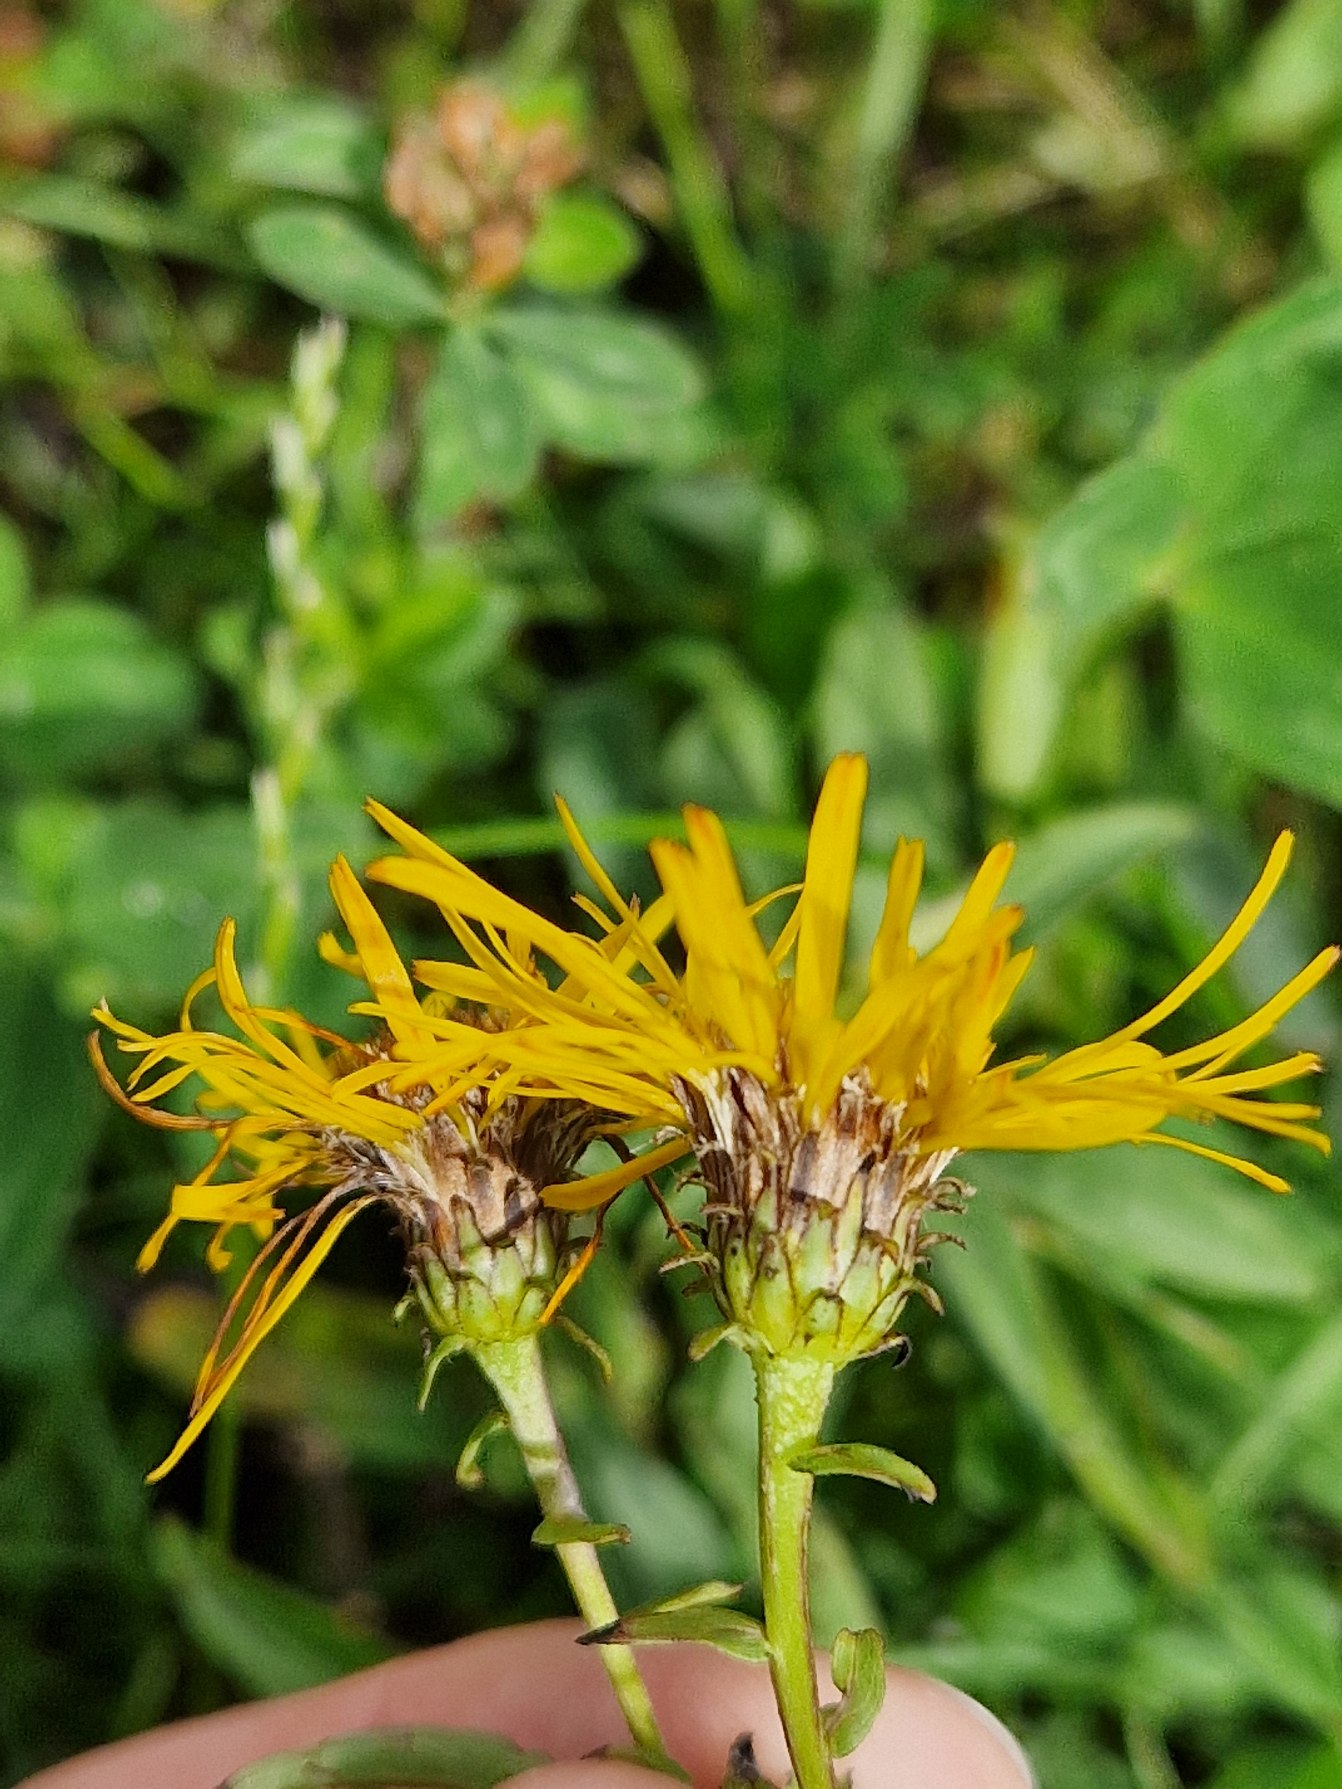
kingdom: Plantae
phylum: Tracheophyta
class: Magnoliopsida
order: Asterales
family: Asteraceae
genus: Pentanema
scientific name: Pentanema salicinum
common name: Pile-alant
